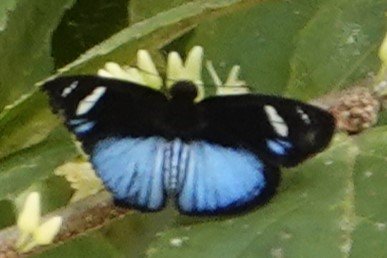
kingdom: Animalia
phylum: Arthropoda
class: Insecta
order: Lepidoptera
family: Hesperiidae
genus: Pythonides
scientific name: Pythonides jovianus
